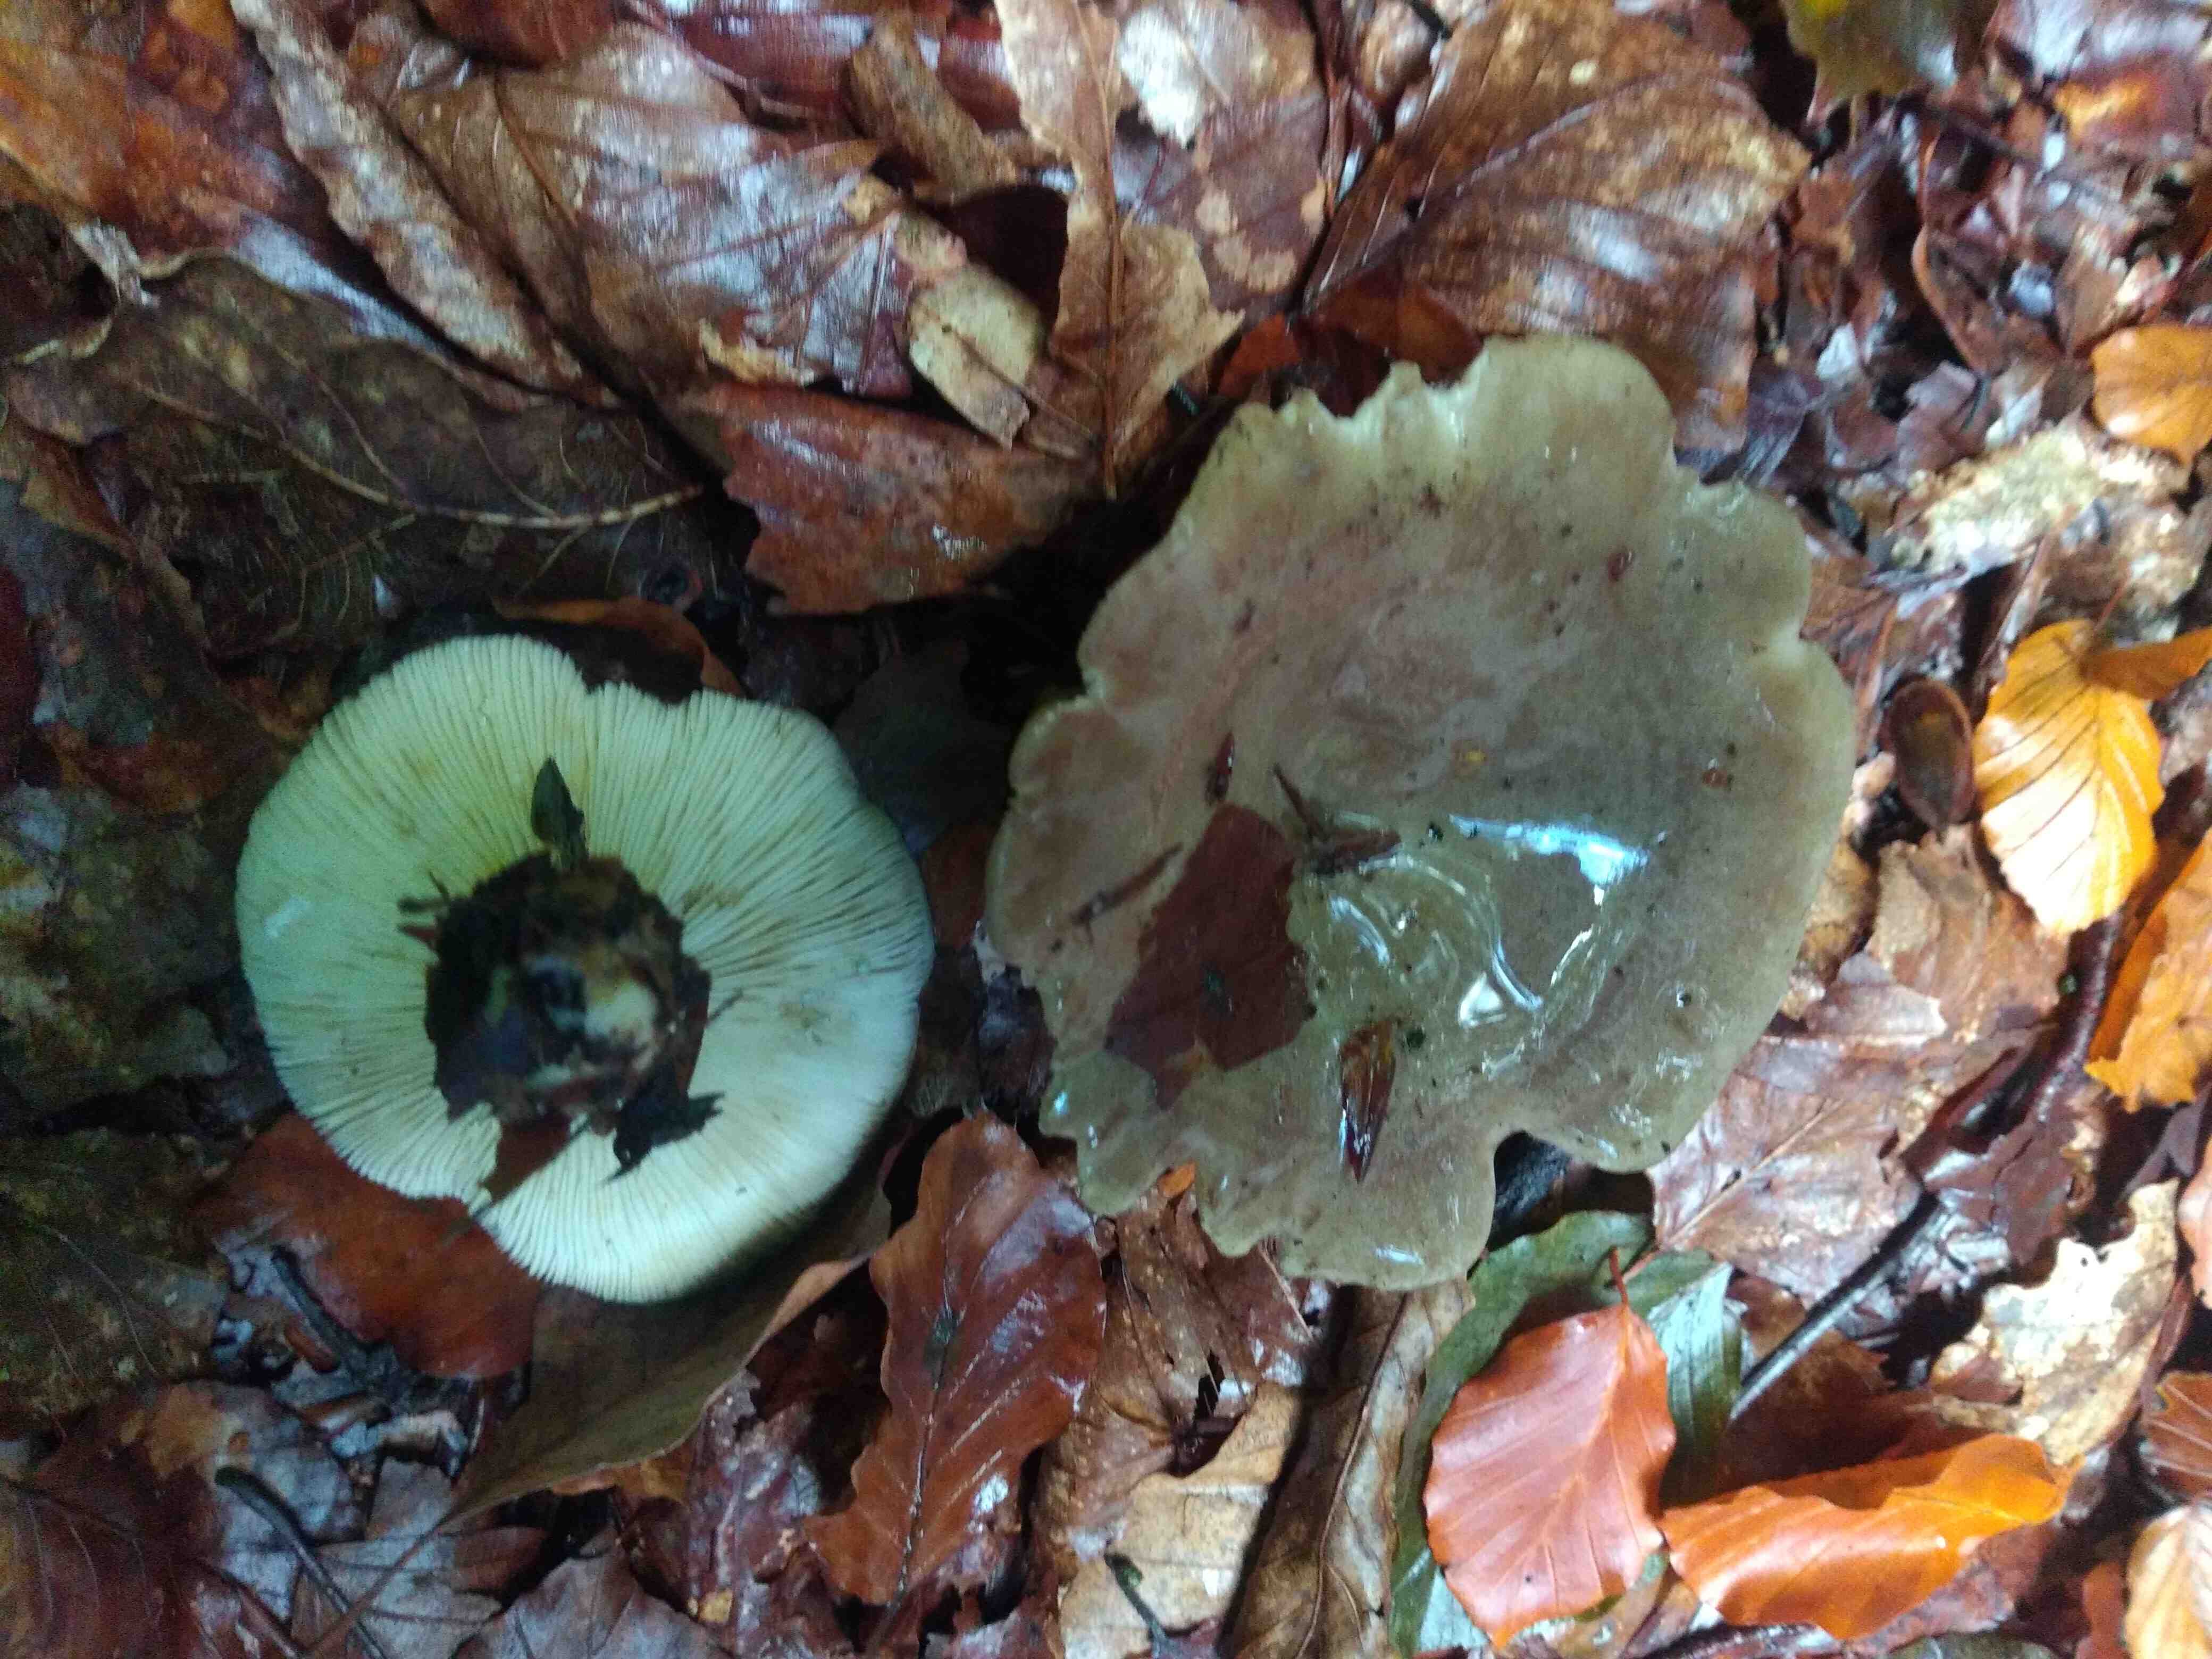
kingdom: Fungi
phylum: Basidiomycota
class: Agaricomycetes
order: Russulales
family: Russulaceae
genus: Lactarius
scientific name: Lactarius
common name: mælkehat
